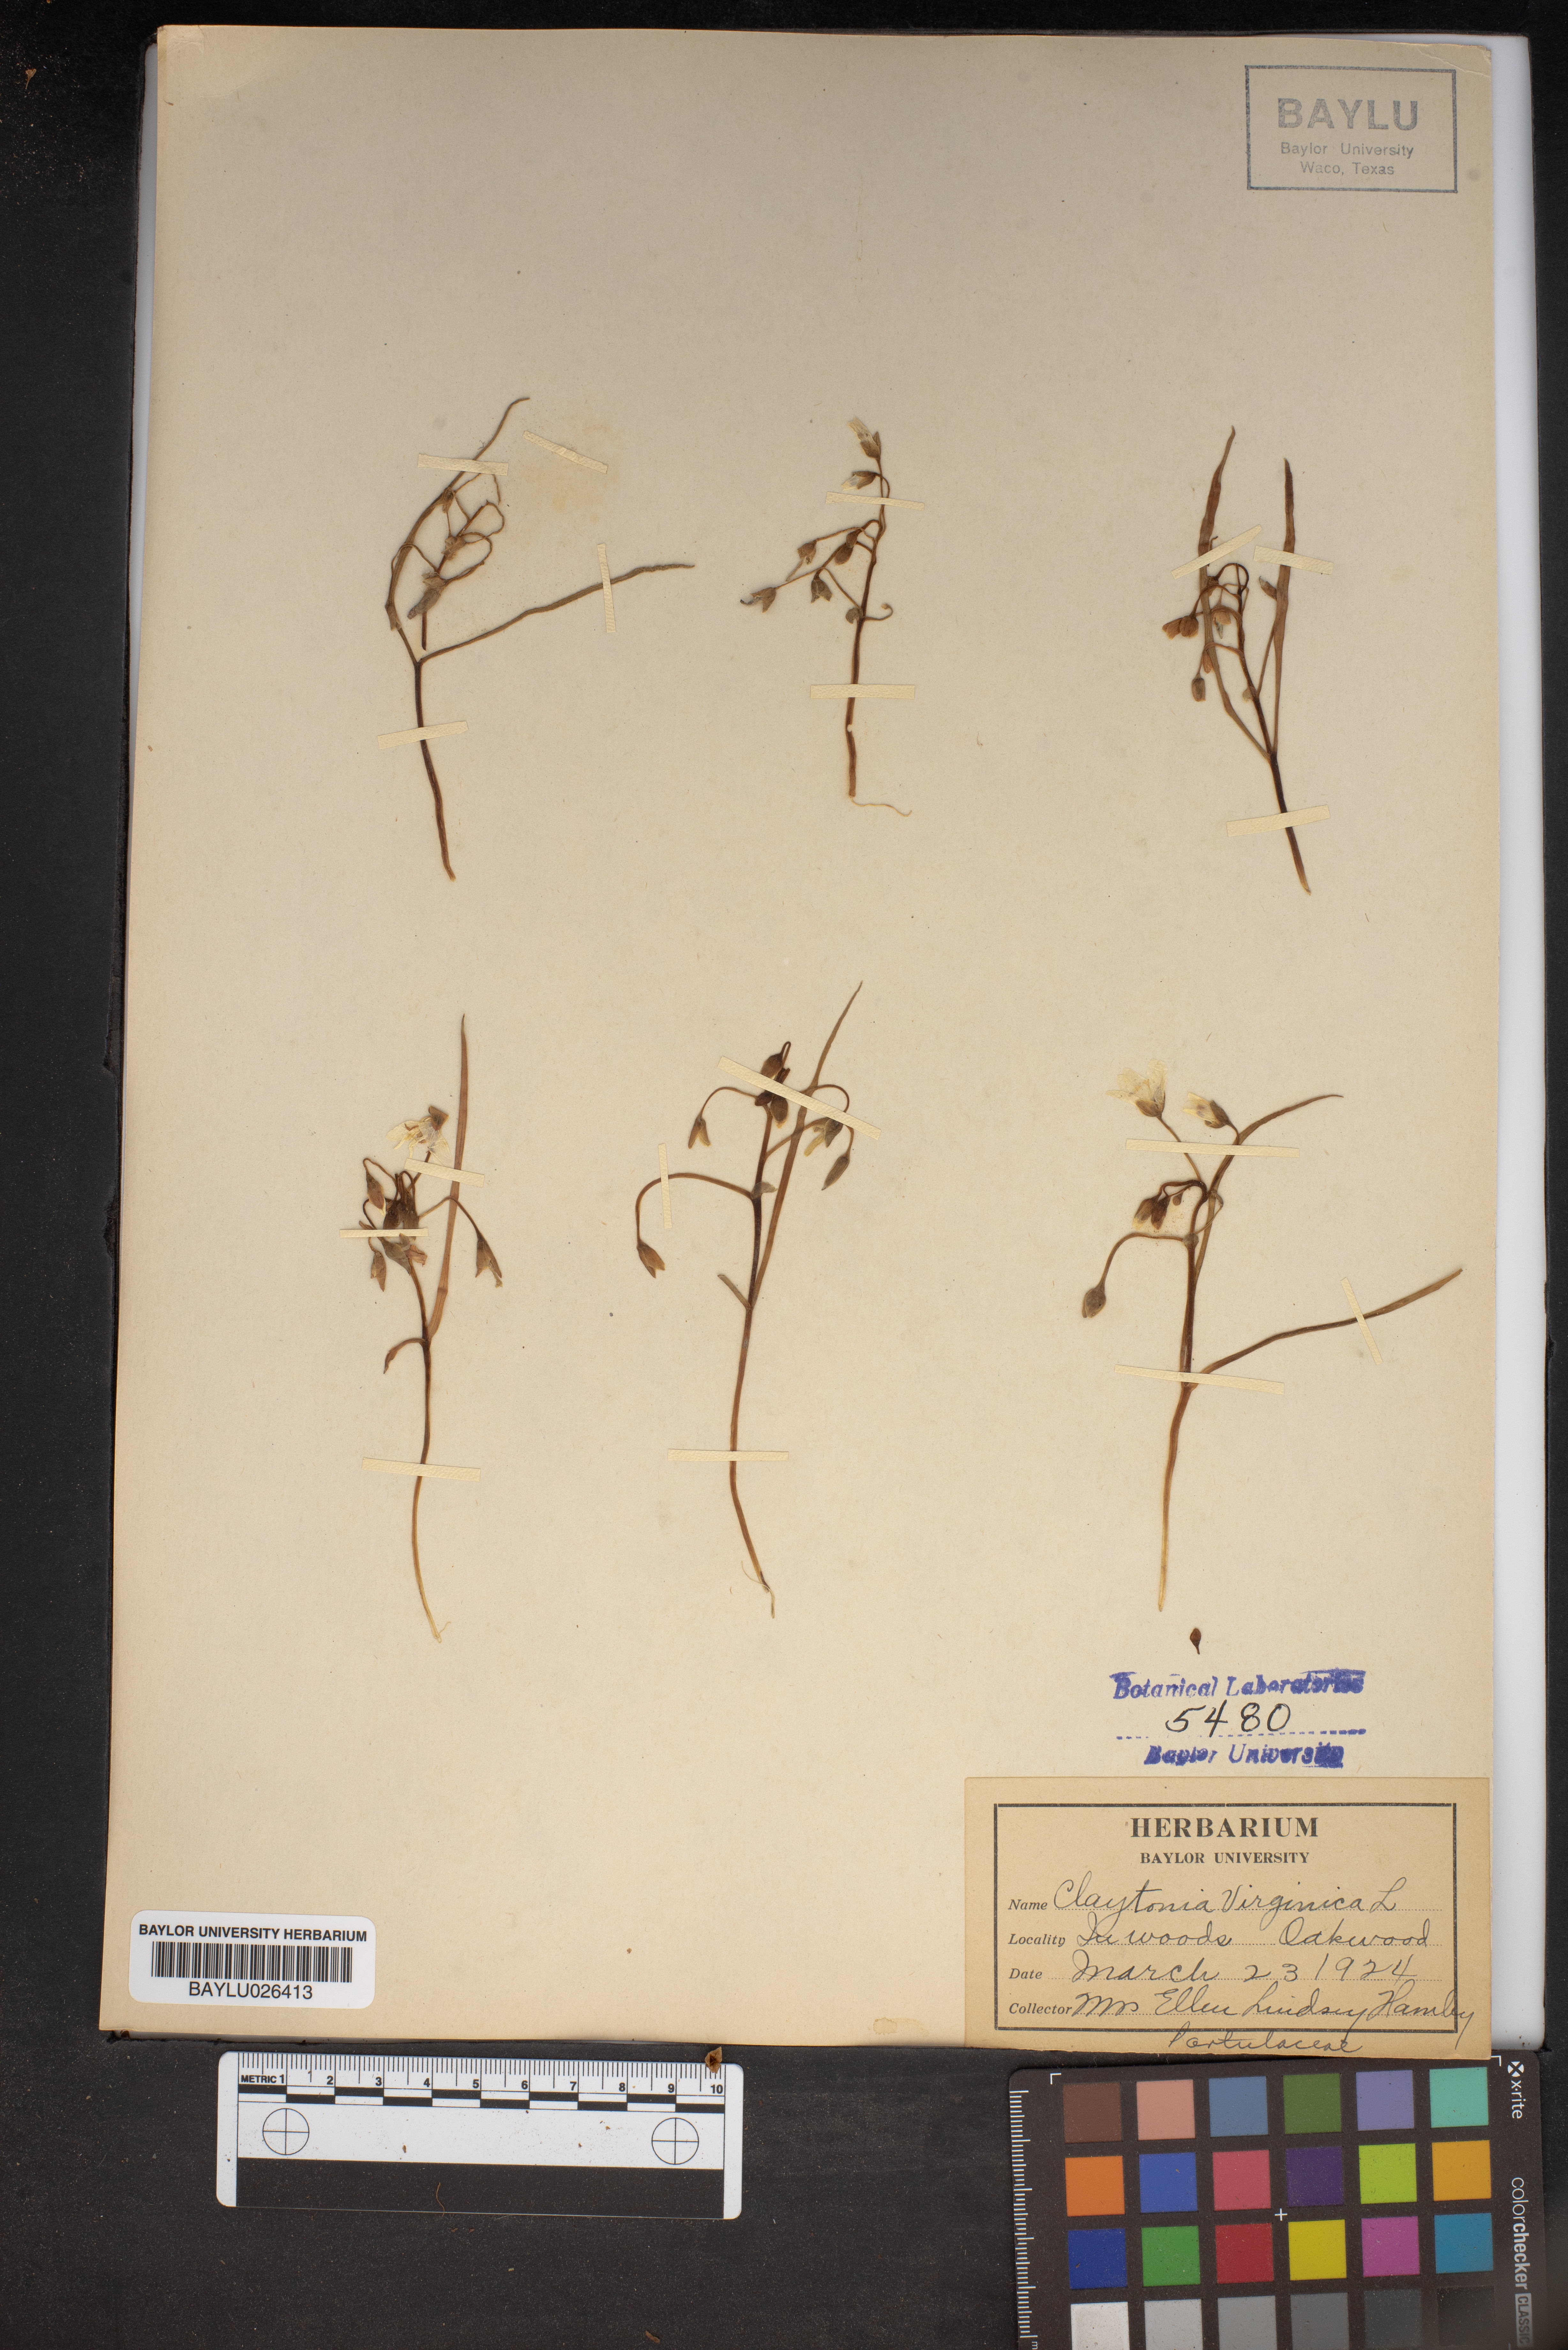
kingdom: Plantae
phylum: Tracheophyta
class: Magnoliopsida
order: Caryophyllales
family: Montiaceae
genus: Claytonia
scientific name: Claytonia virginica
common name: Virginia springbeauty
